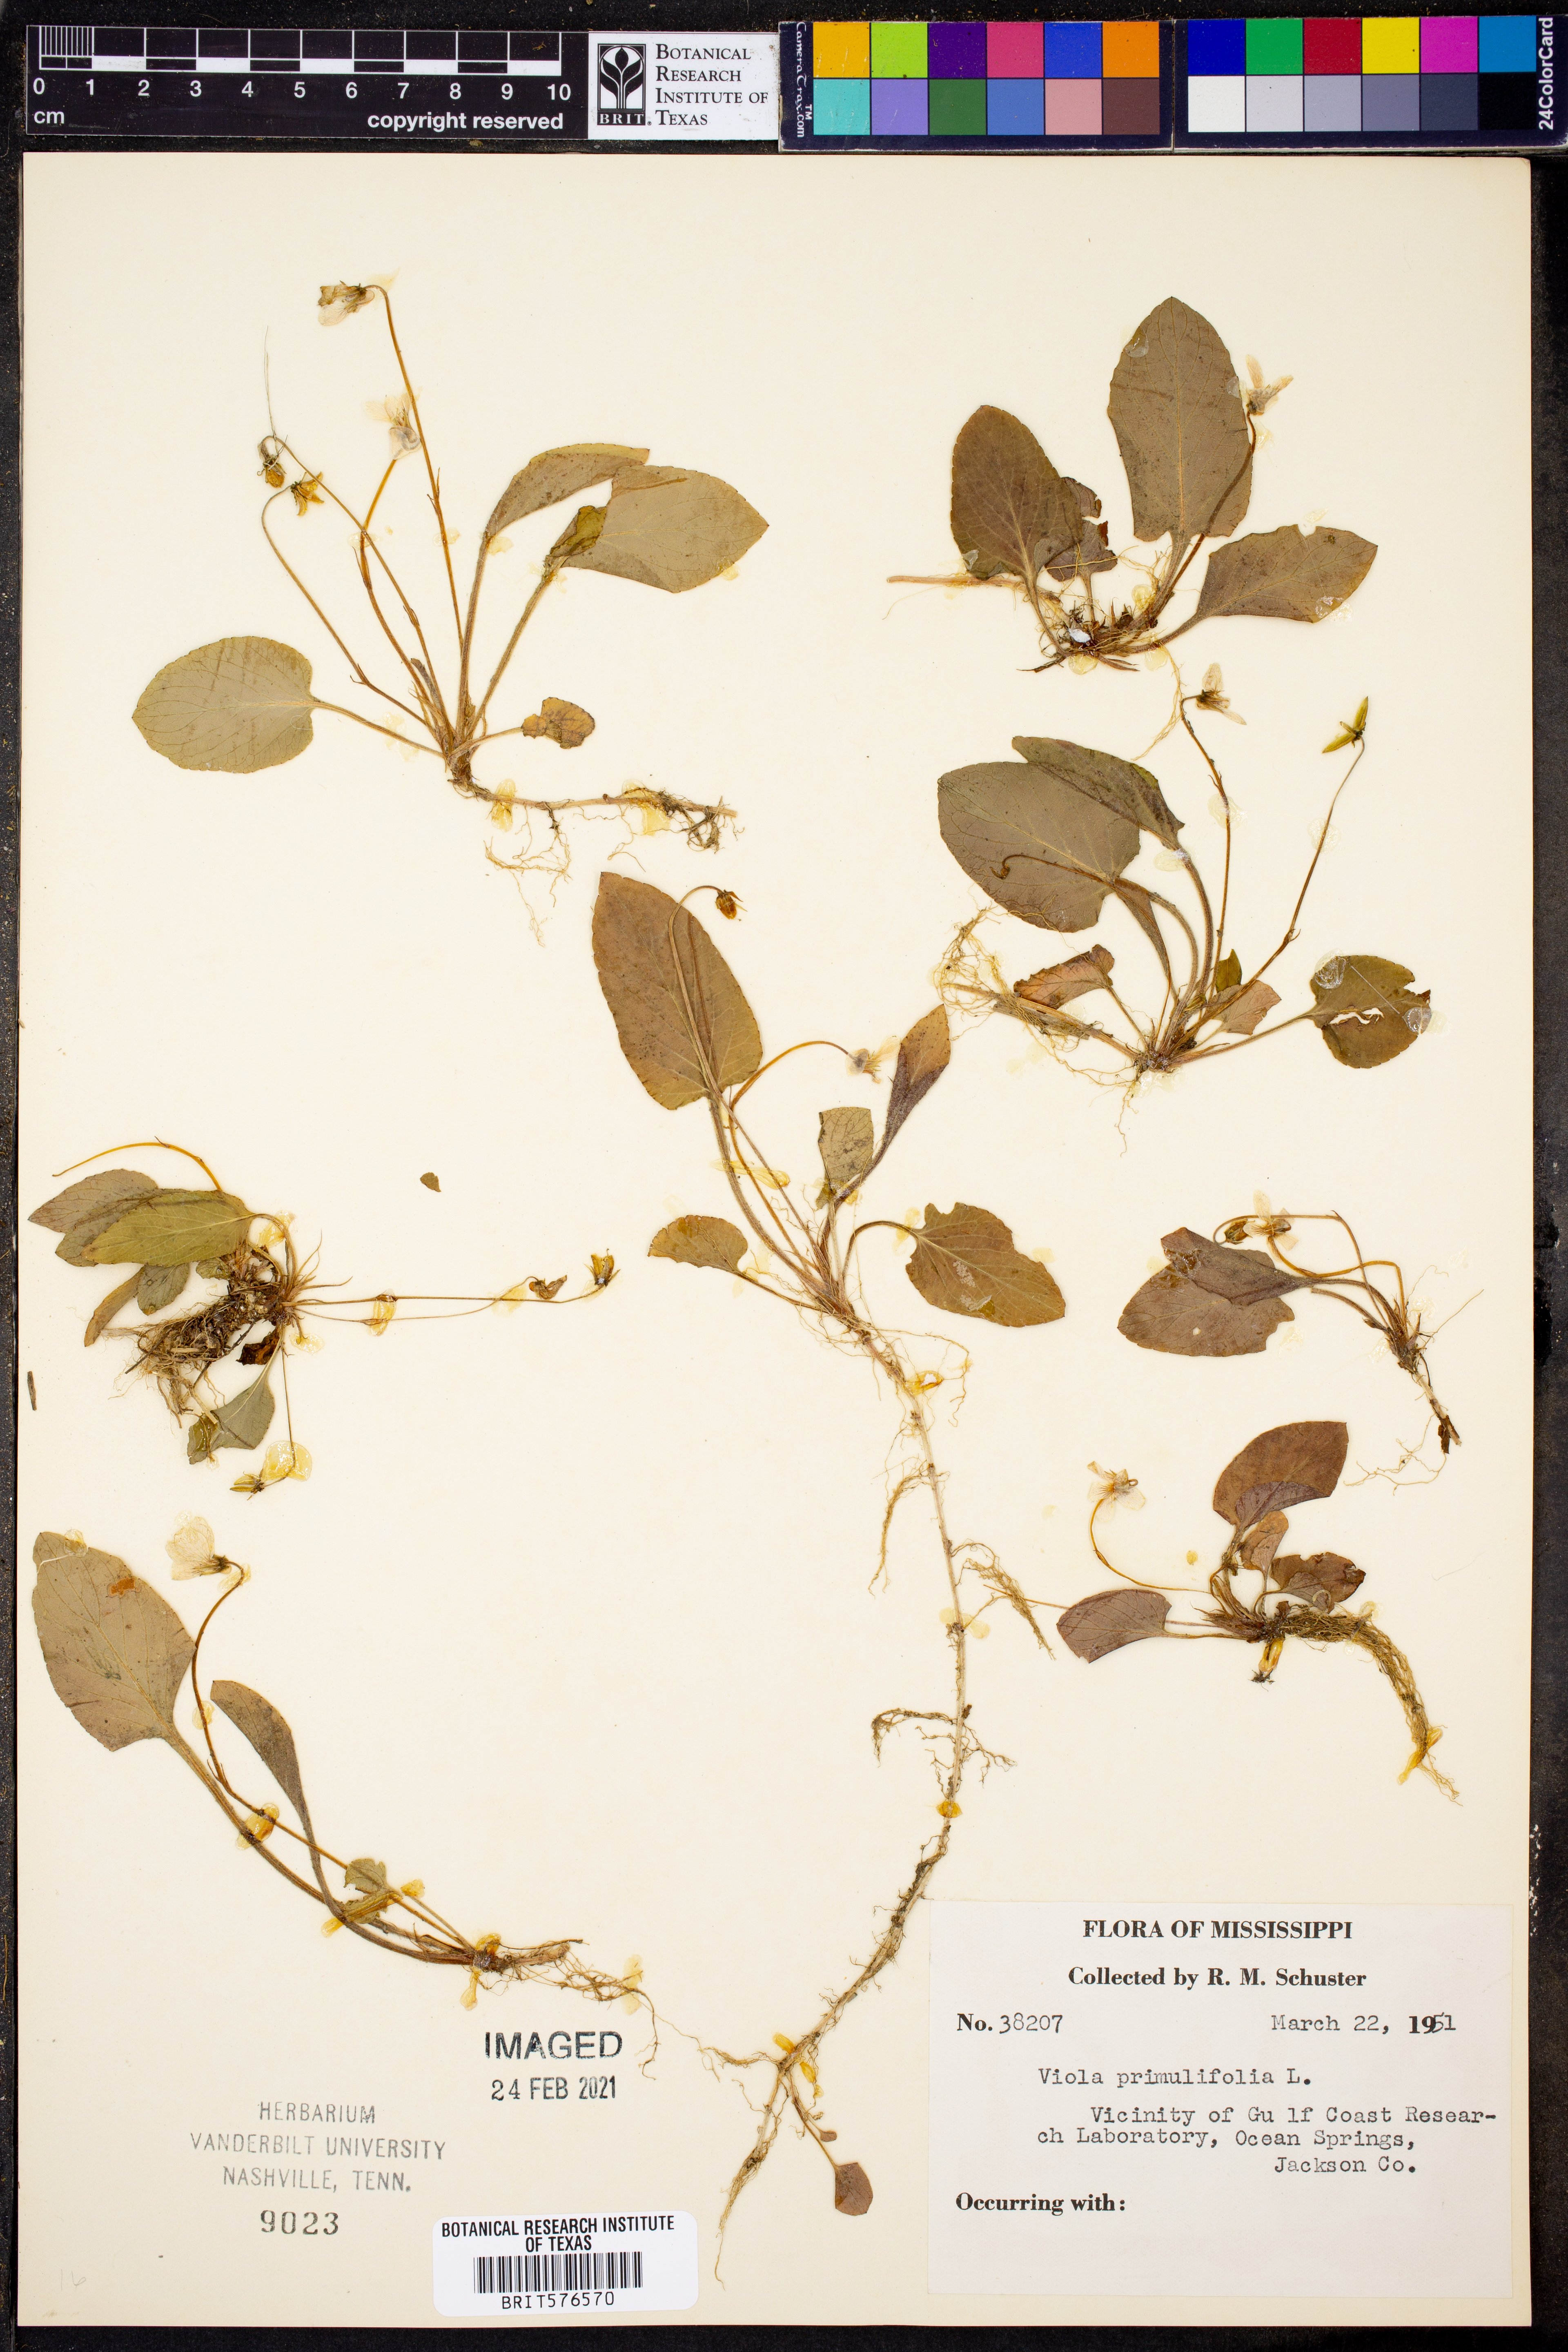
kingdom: Plantae
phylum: Tracheophyta
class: Magnoliopsida
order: Malpighiales
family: Violaceae
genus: Viola
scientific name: Viola primulifolia
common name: Primrose-leaf violet
